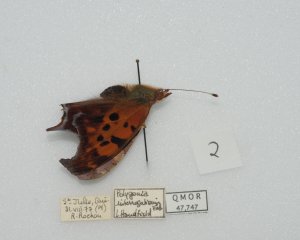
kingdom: Animalia
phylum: Arthropoda
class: Insecta
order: Lepidoptera
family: Nymphalidae
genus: Polygonia
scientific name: Polygonia interrogationis
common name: Question Mark
